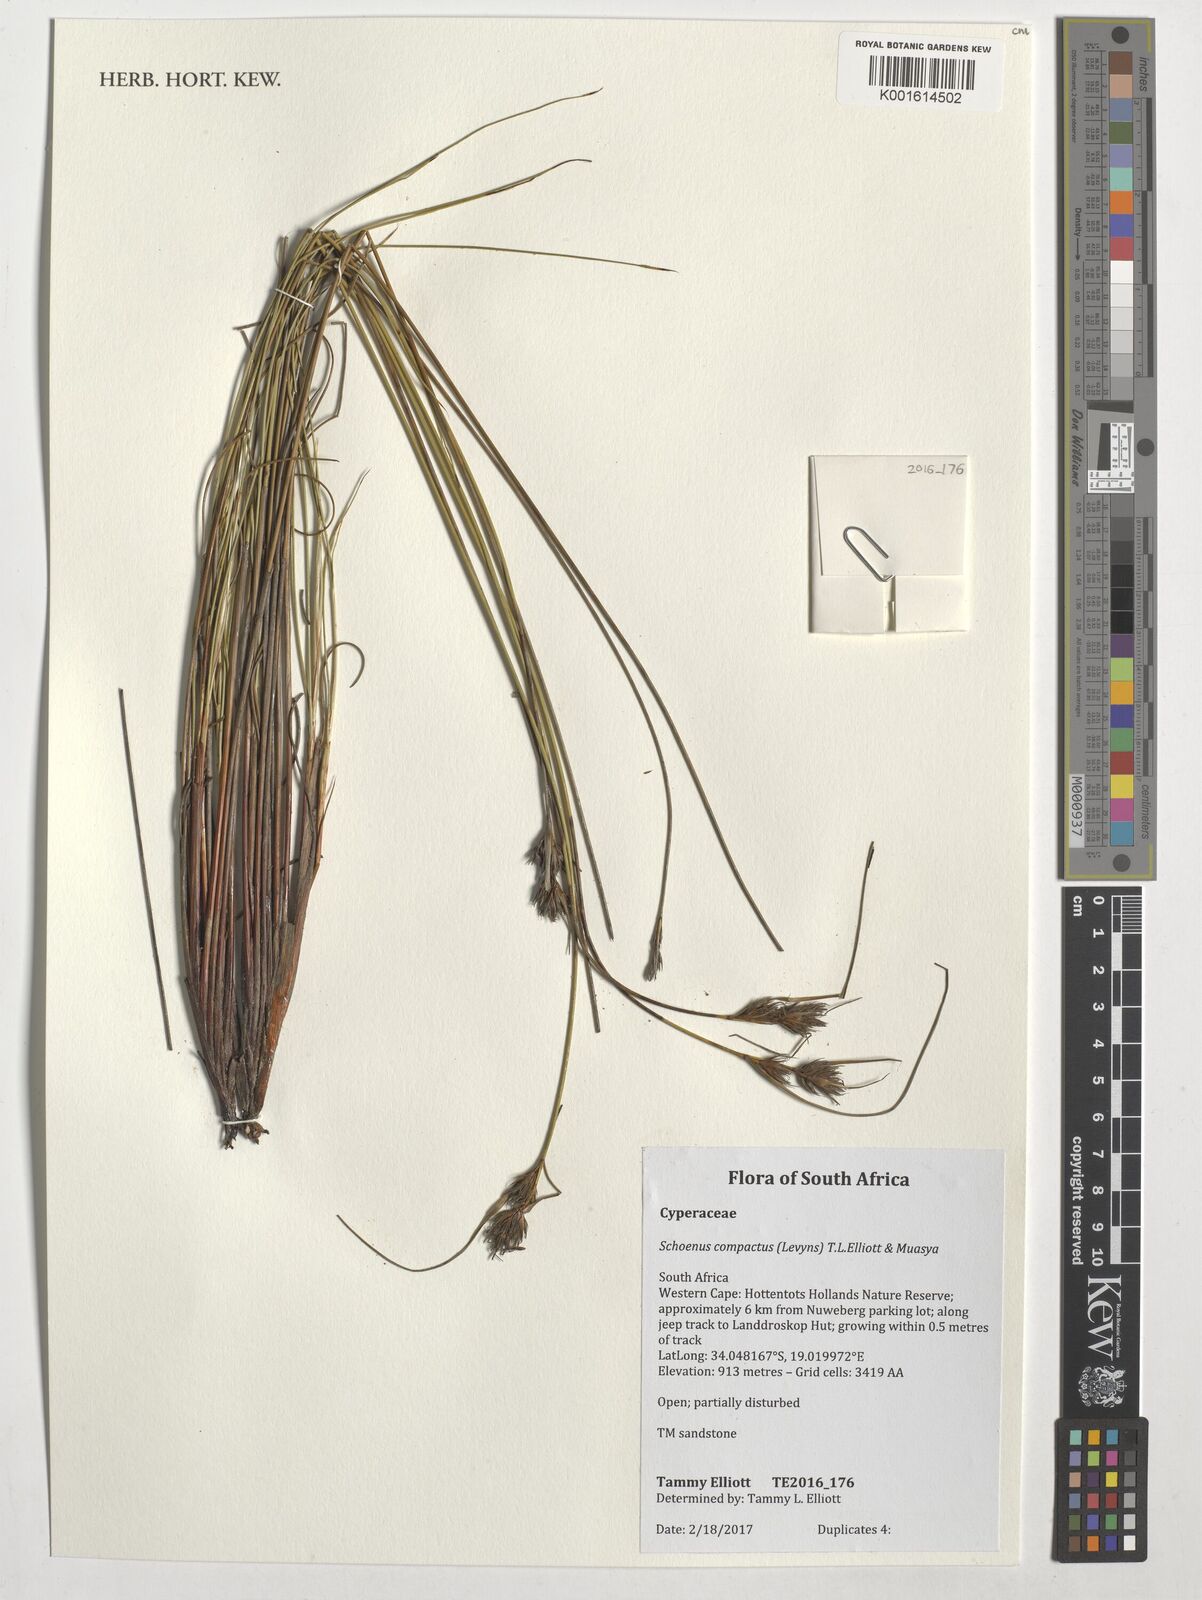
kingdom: Plantae
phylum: Tracheophyta
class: Liliopsida
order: Poales
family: Cyperaceae
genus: Schoenus
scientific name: Schoenus compactus
